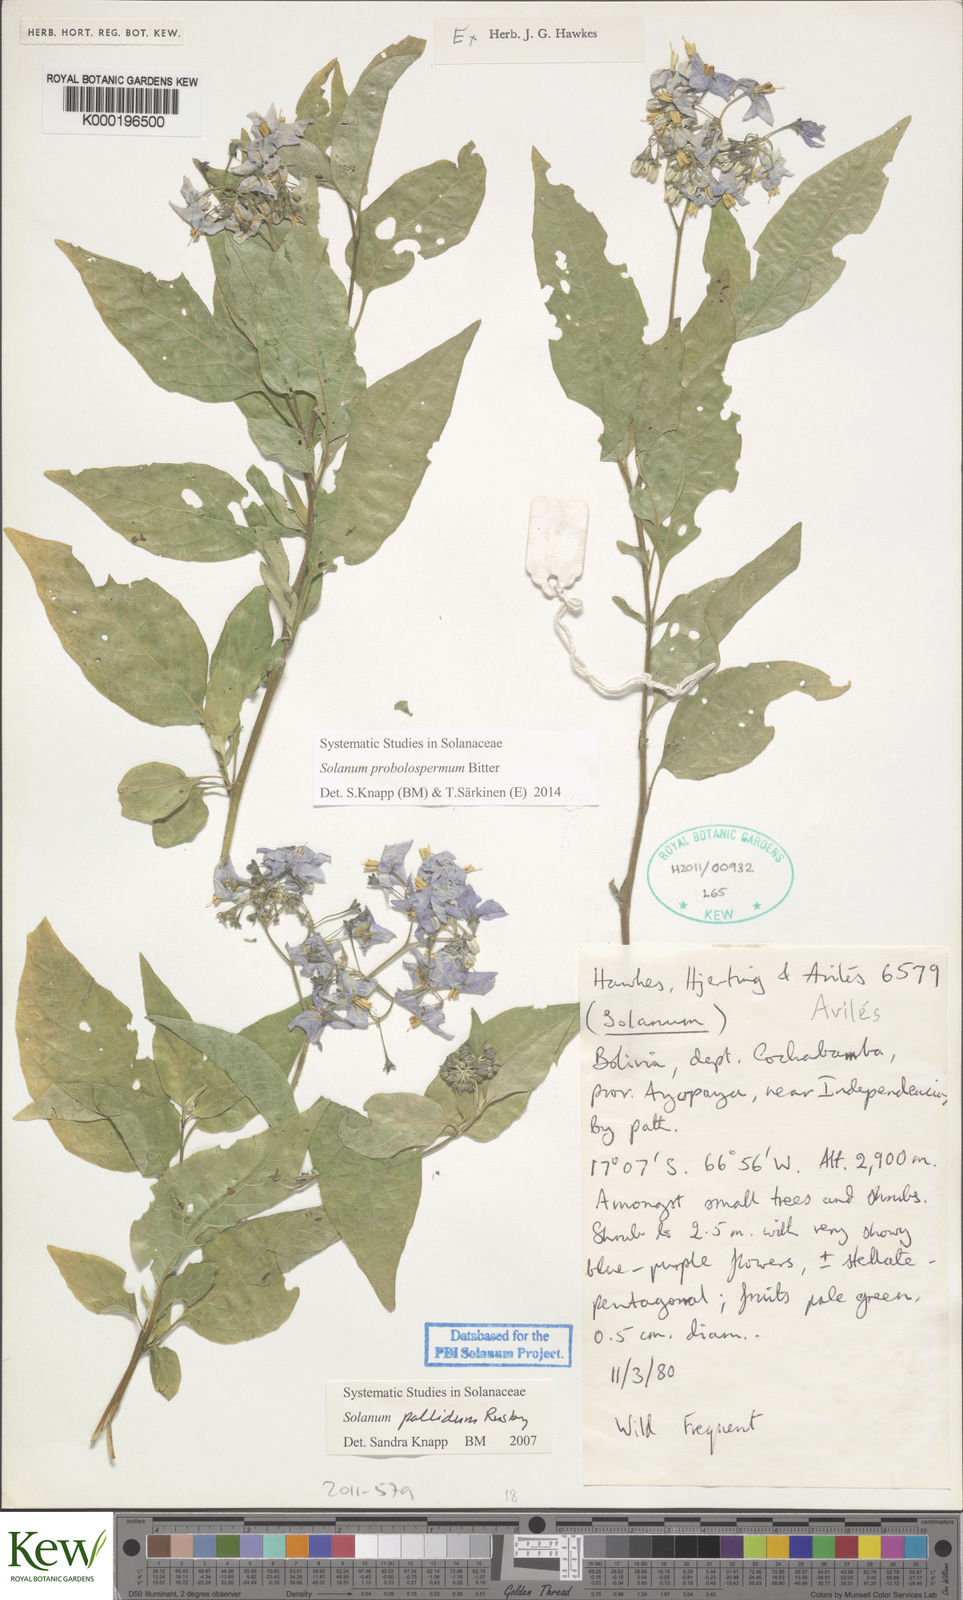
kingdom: Plantae
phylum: Tracheophyta
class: Magnoliopsida
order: Solanales
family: Solanaceae
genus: Solanum
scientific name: Solanum probolospermum
